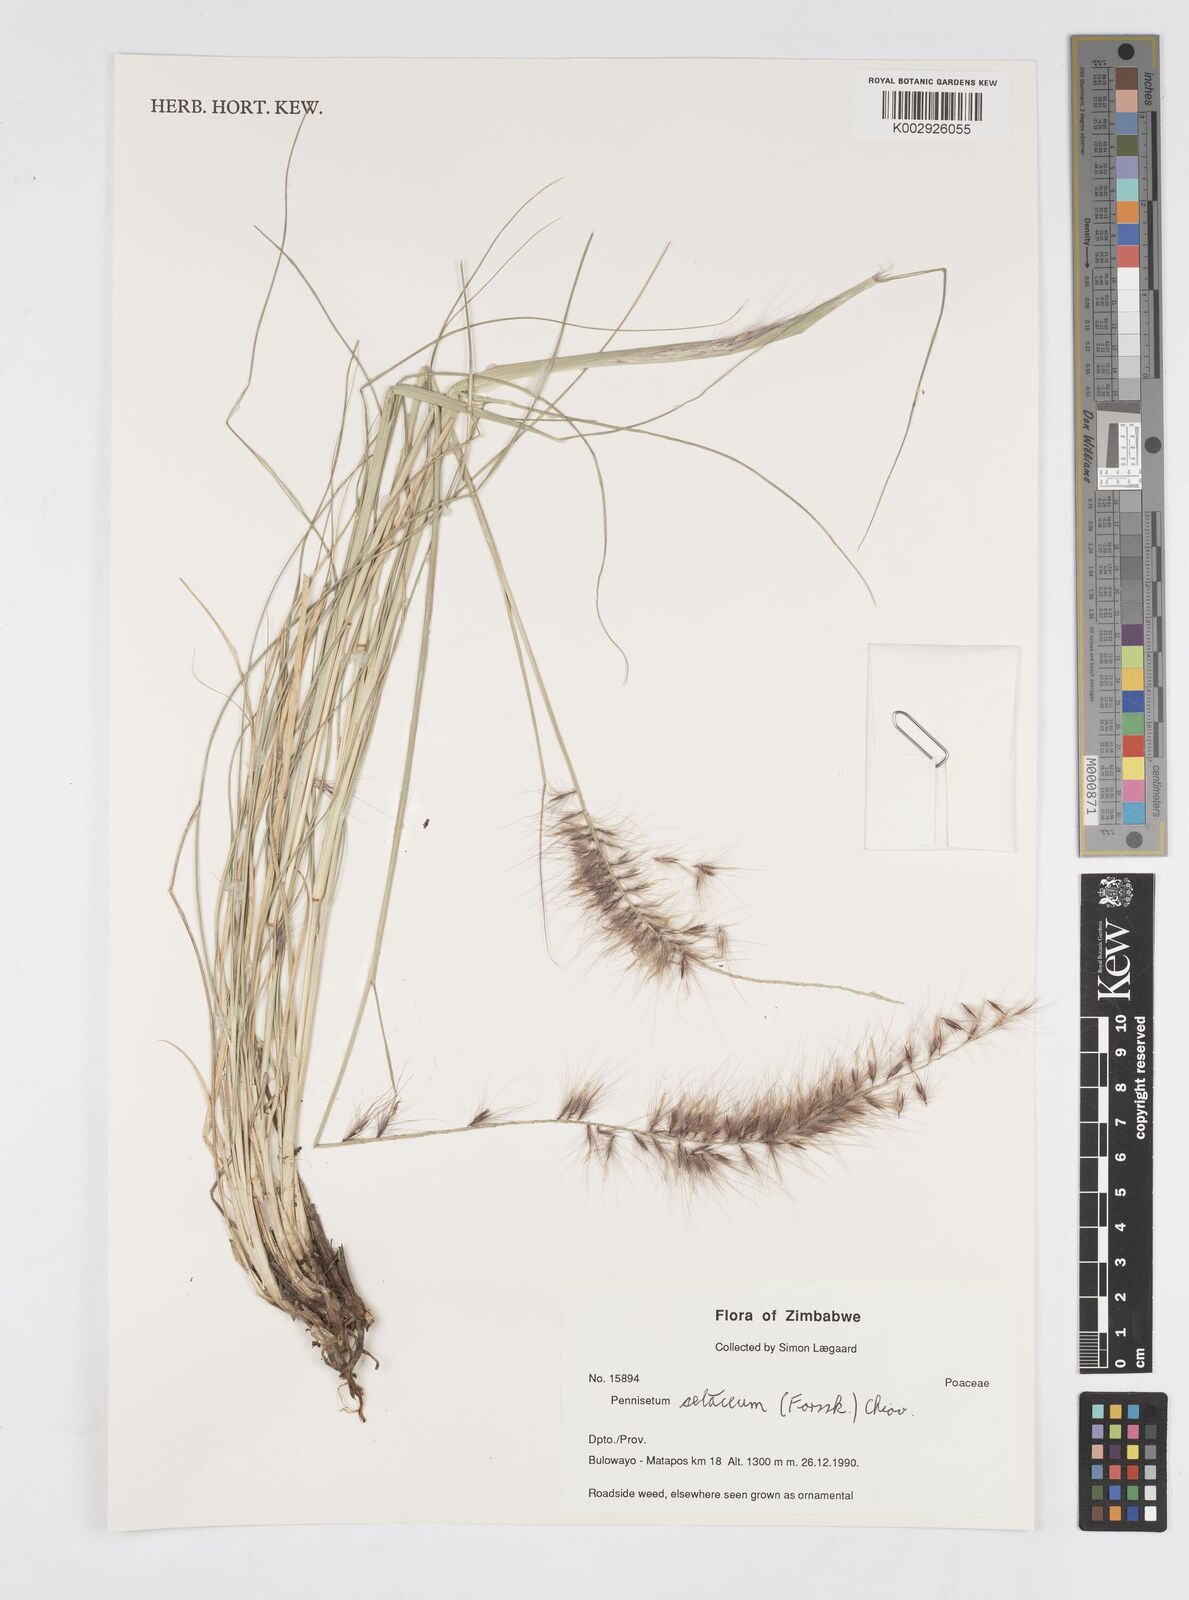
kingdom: Plantae
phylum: Tracheophyta
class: Liliopsida
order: Poales
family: Poaceae
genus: Cenchrus
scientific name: Cenchrus setaceus
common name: Crimson fountaingrass
